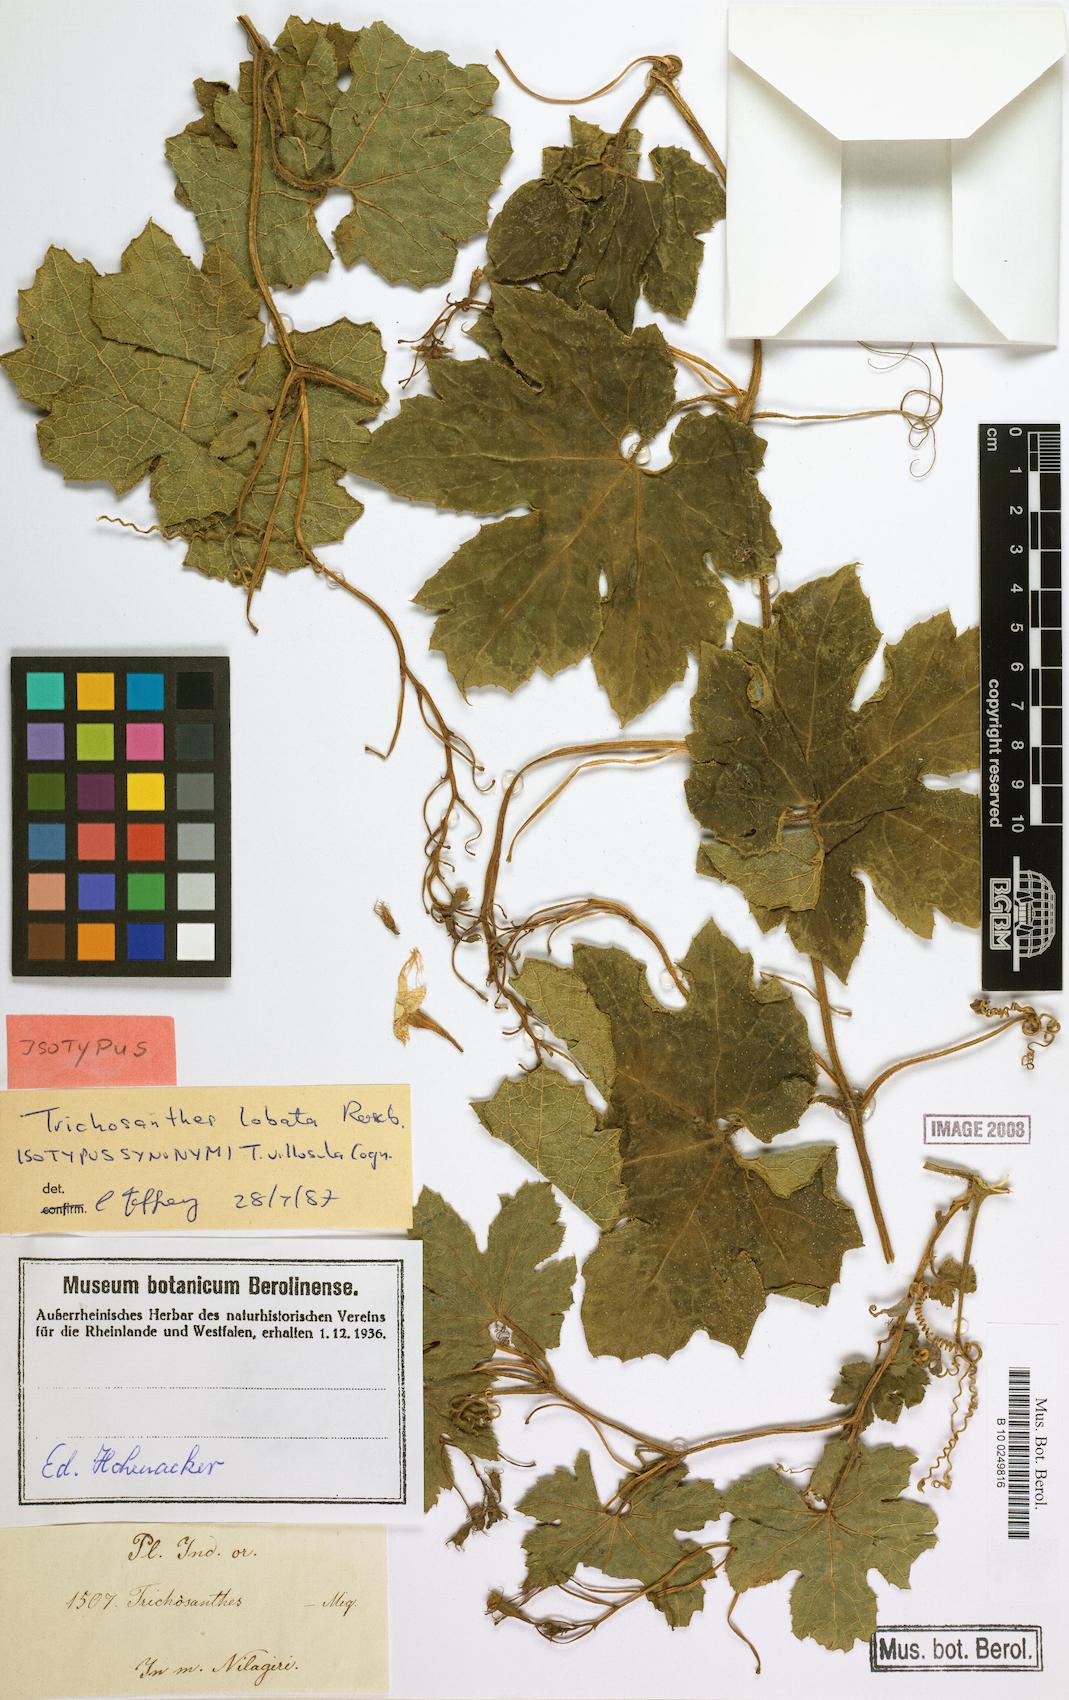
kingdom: Plantae
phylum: Tracheophyta
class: Magnoliopsida
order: Cucurbitales
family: Cucurbitaceae
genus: Trichosanthes
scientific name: Trichosanthes cucumerina
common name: Snakegourd
